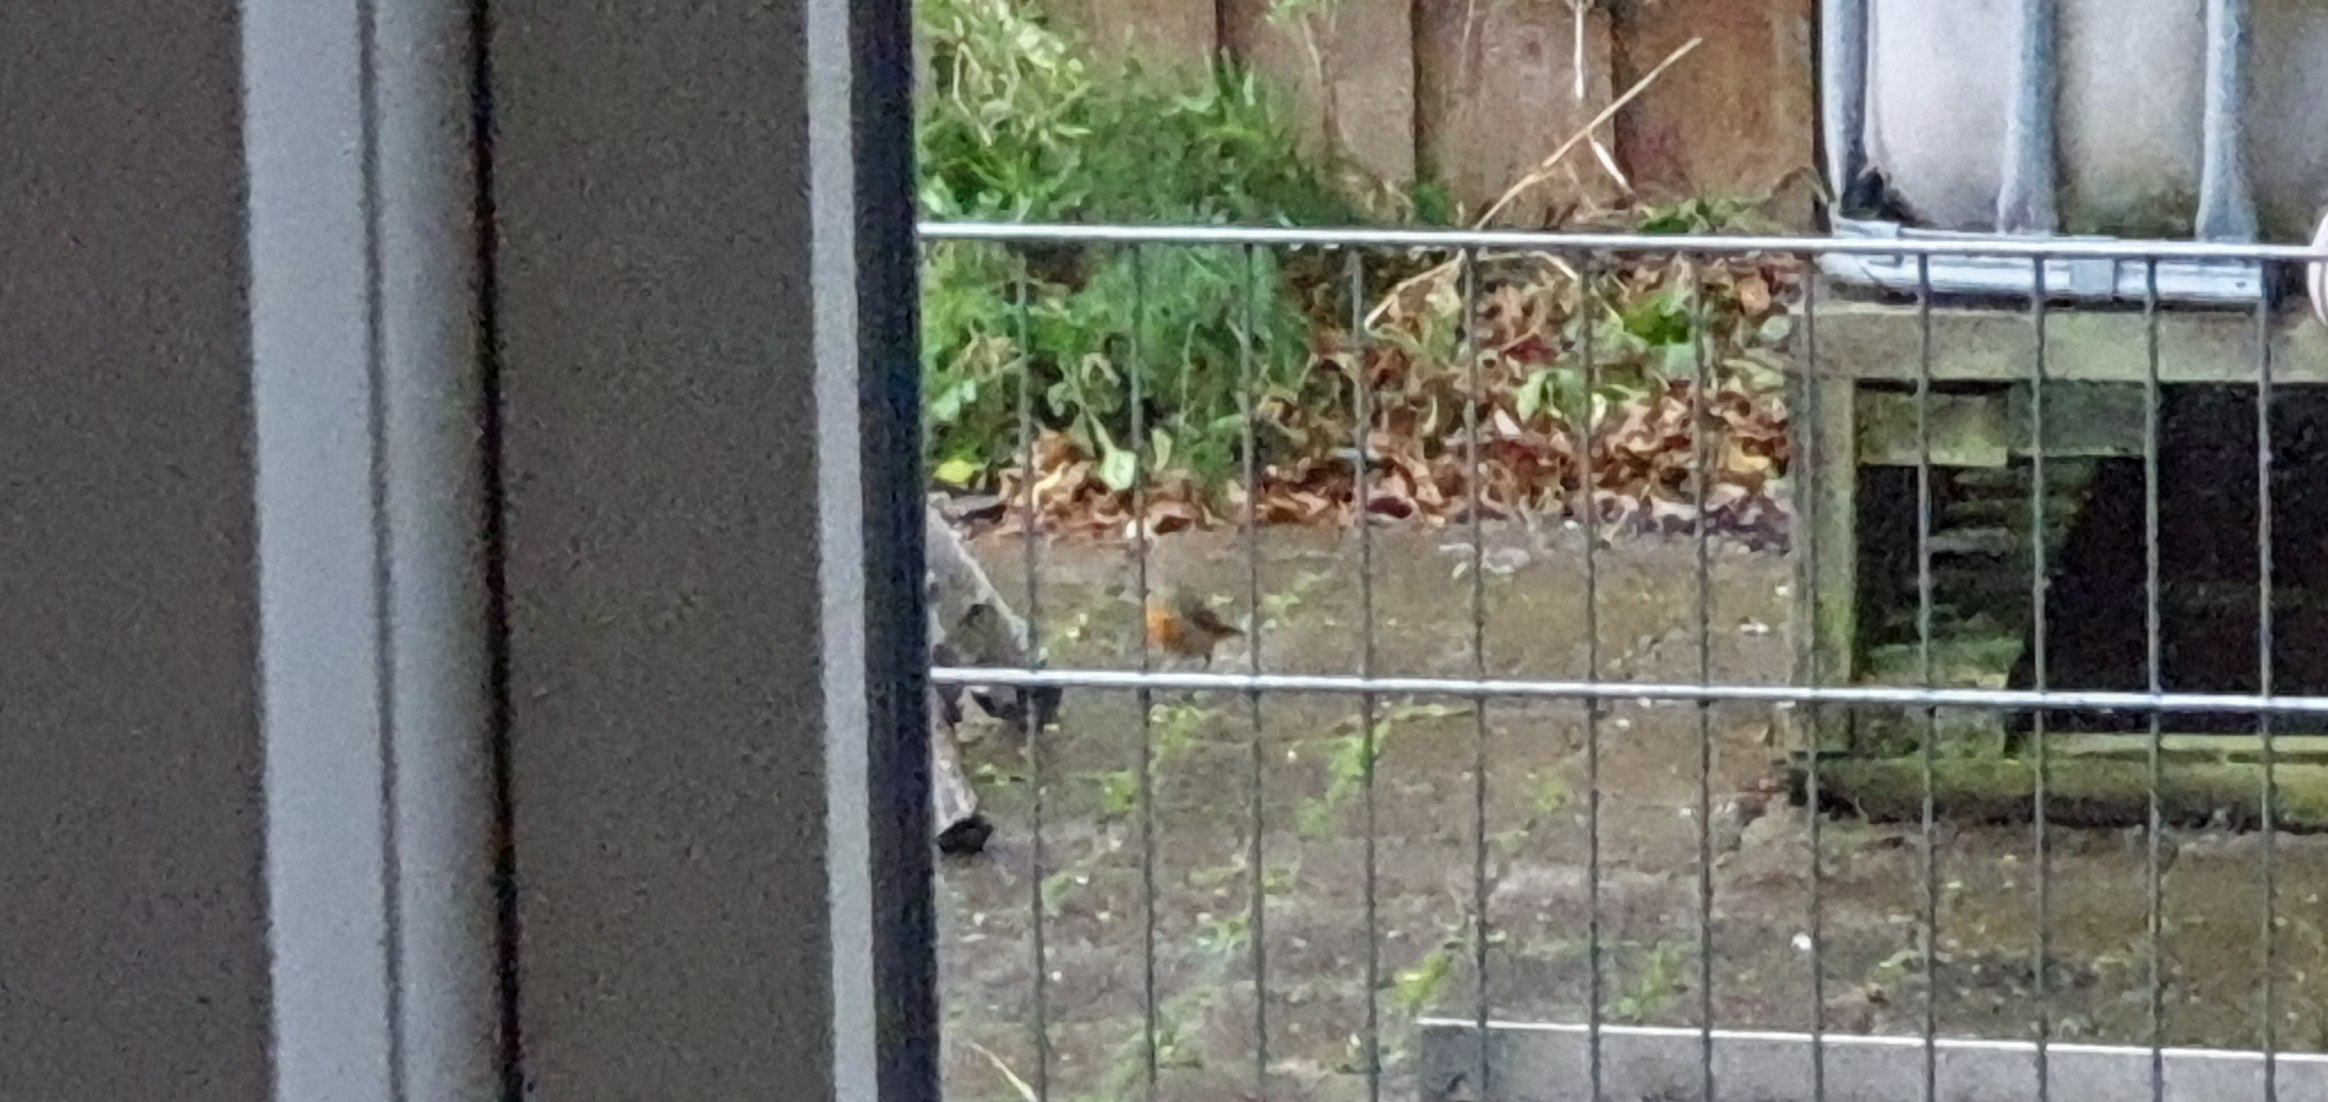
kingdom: Animalia
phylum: Chordata
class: Aves
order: Passeriformes
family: Muscicapidae
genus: Erithacus
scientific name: Erithacus rubecula
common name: Rødhals/rødkælk
